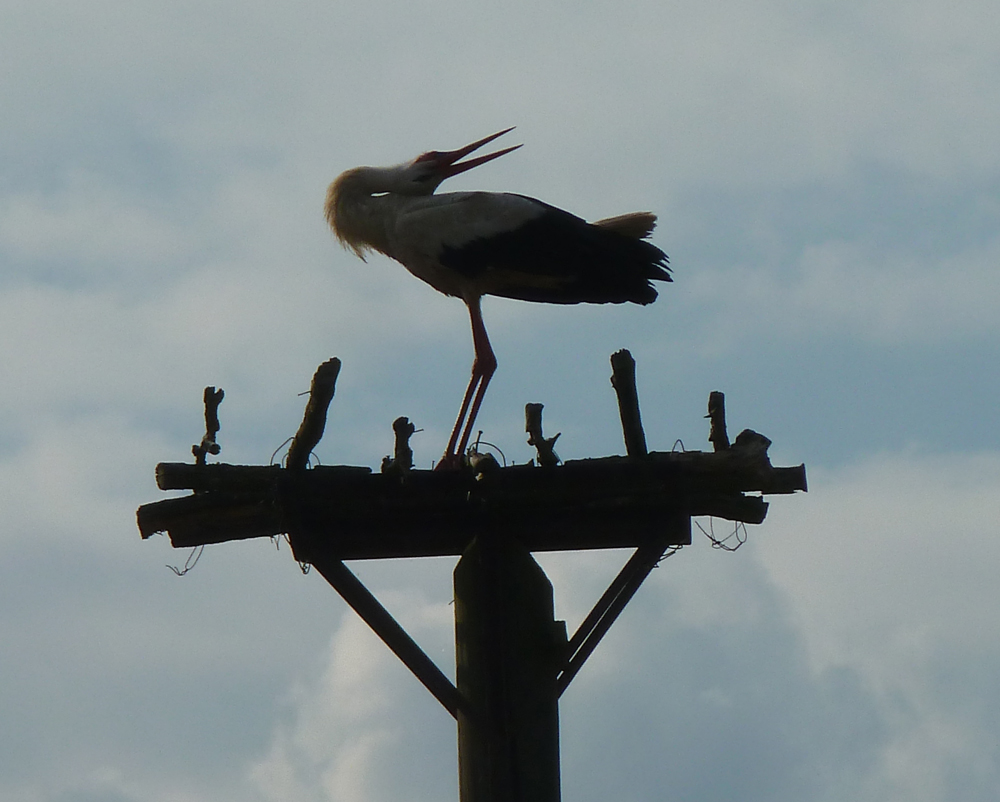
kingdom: Animalia
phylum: Chordata
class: Aves
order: Ciconiiformes
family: Ciconiidae
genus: Ciconia
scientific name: Ciconia ciconia
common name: White stork
